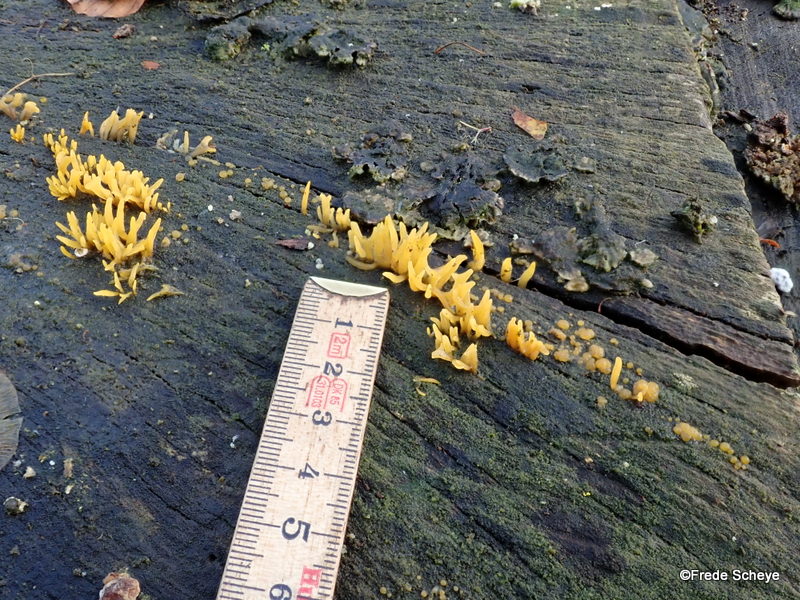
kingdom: Fungi
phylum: Basidiomycota
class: Dacrymycetes
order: Dacrymycetales
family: Dacrymycetaceae
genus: Calocera
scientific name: Calocera cornea
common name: liden guldgaffel
